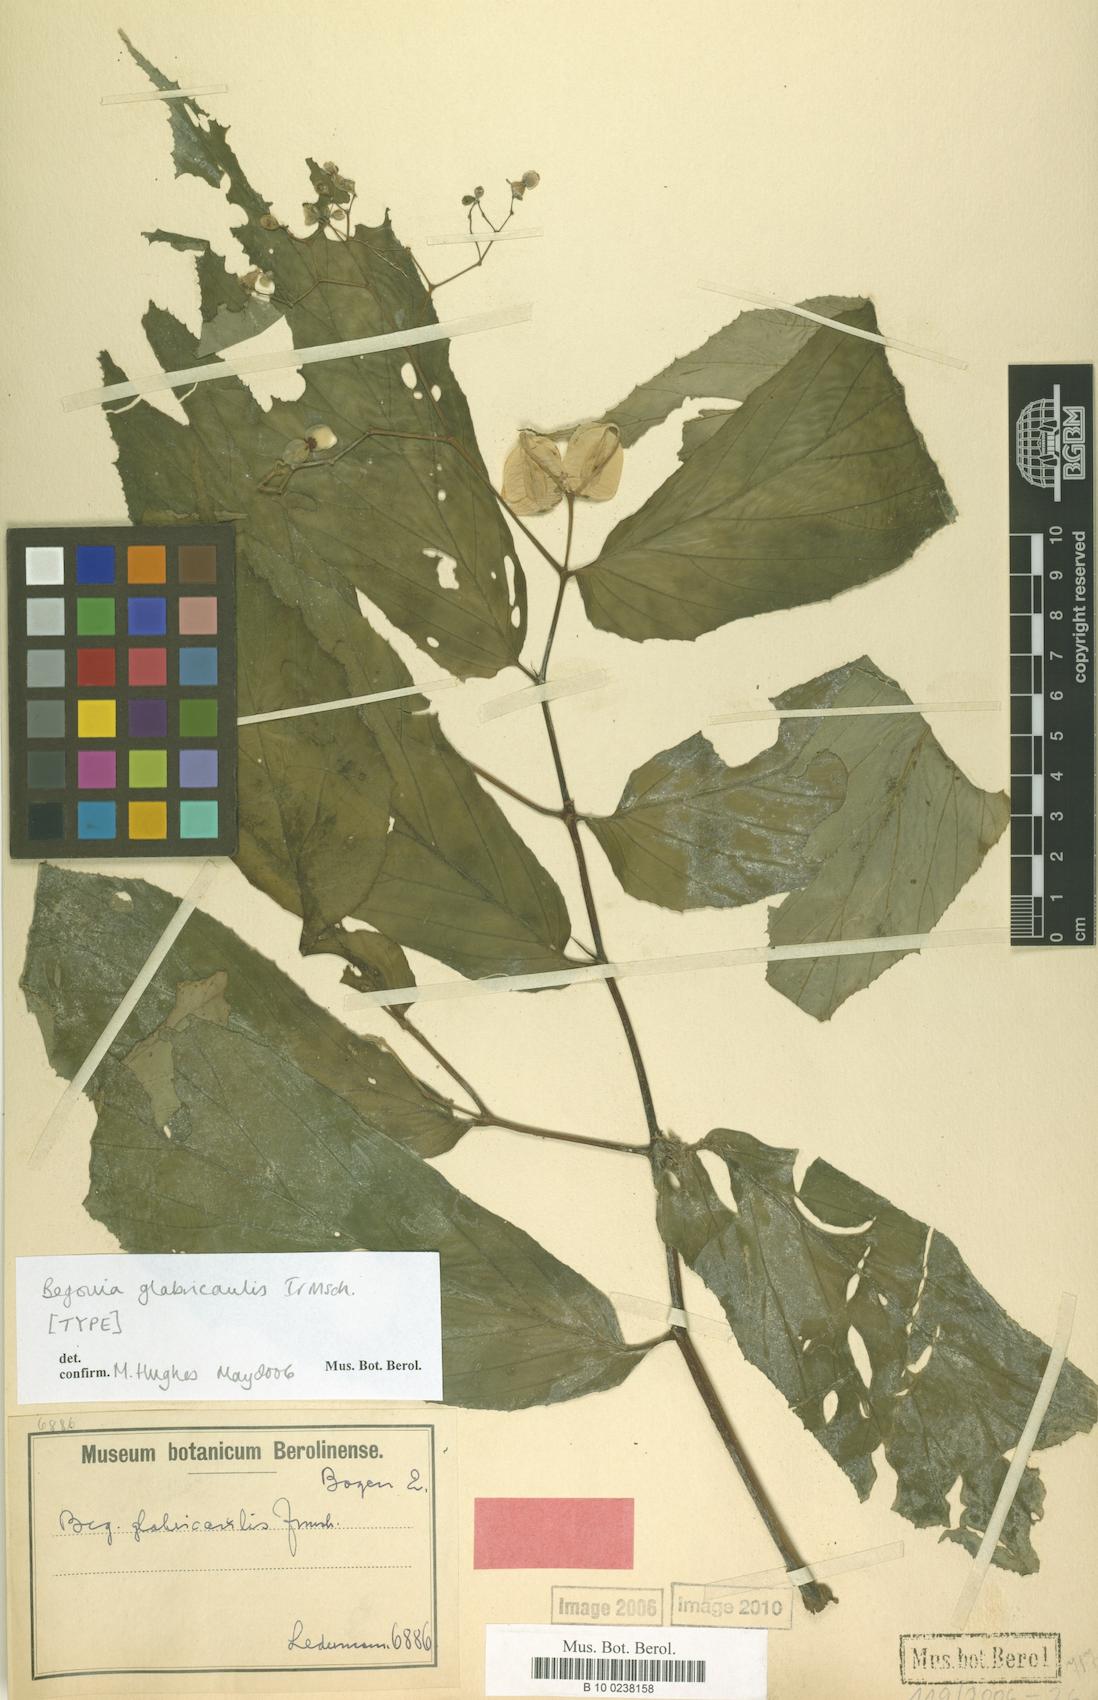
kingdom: Plantae
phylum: Tracheophyta
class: Magnoliopsida
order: Cucurbitales
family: Begoniaceae
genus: Begonia
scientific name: Begonia glabricaulis
